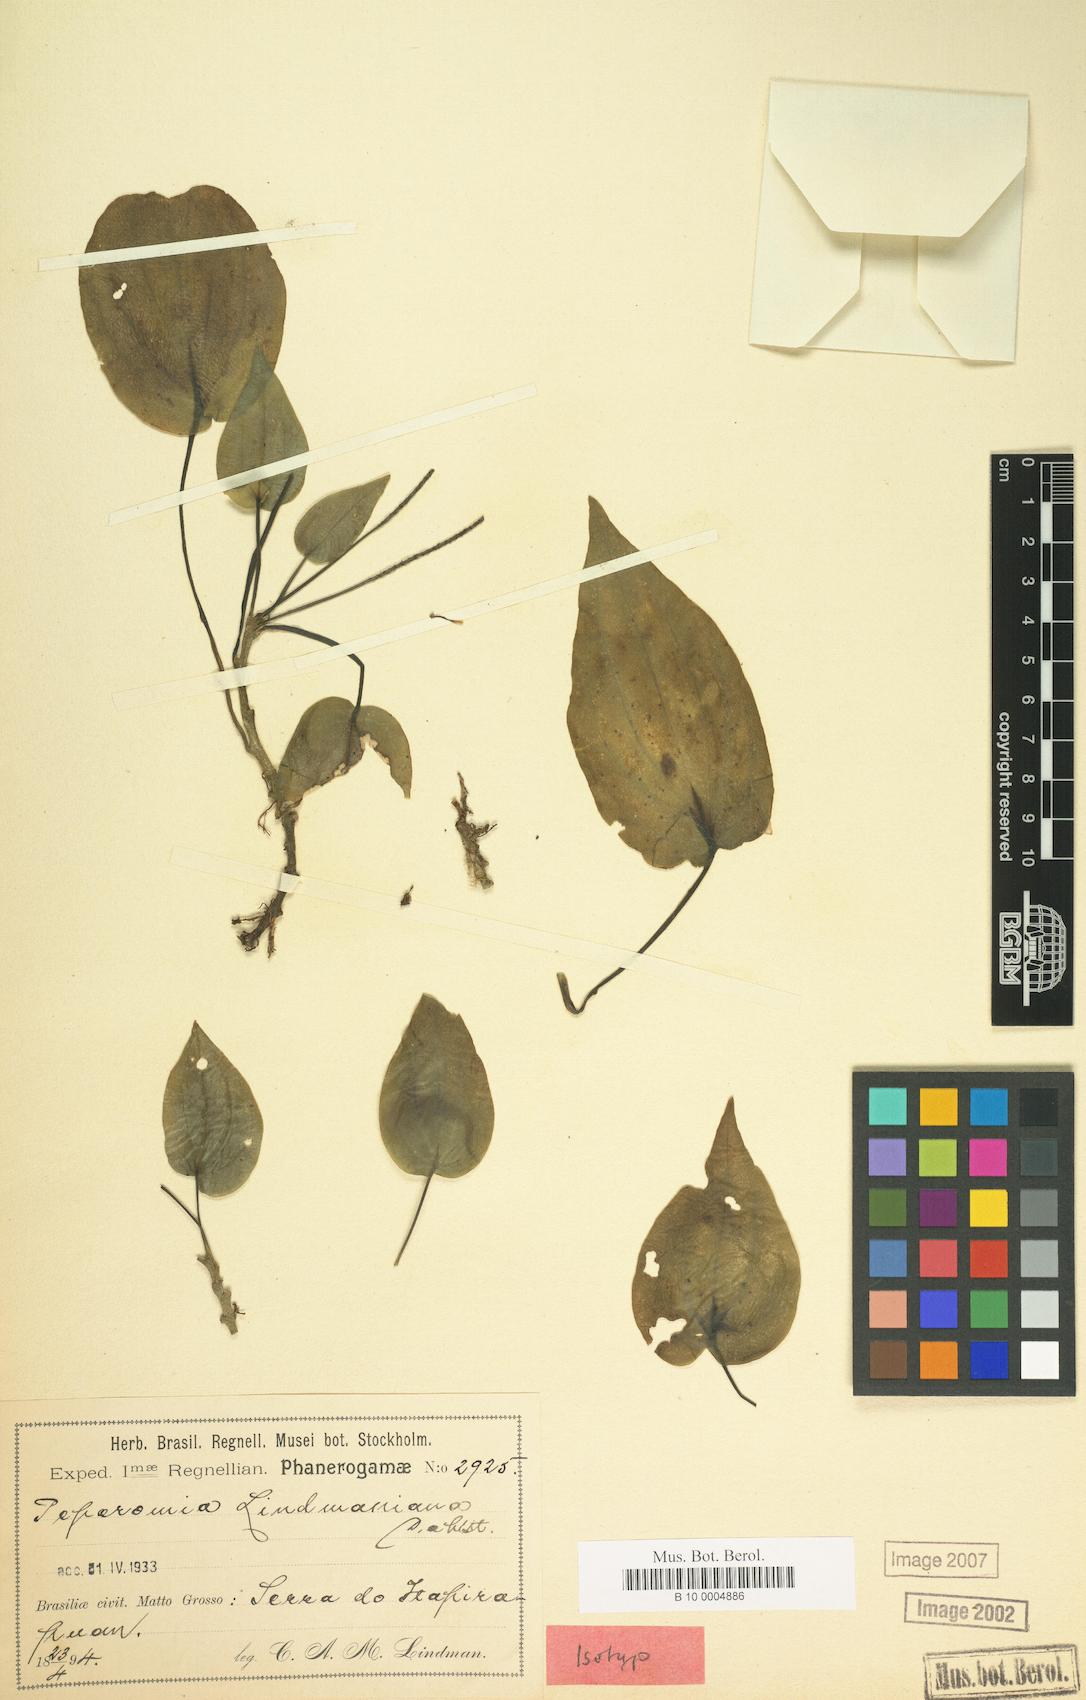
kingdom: Plantae
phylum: Tracheophyta
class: Magnoliopsida
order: Piperales
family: Piperaceae
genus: Peperomia
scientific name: Peperomia lindmaniana
